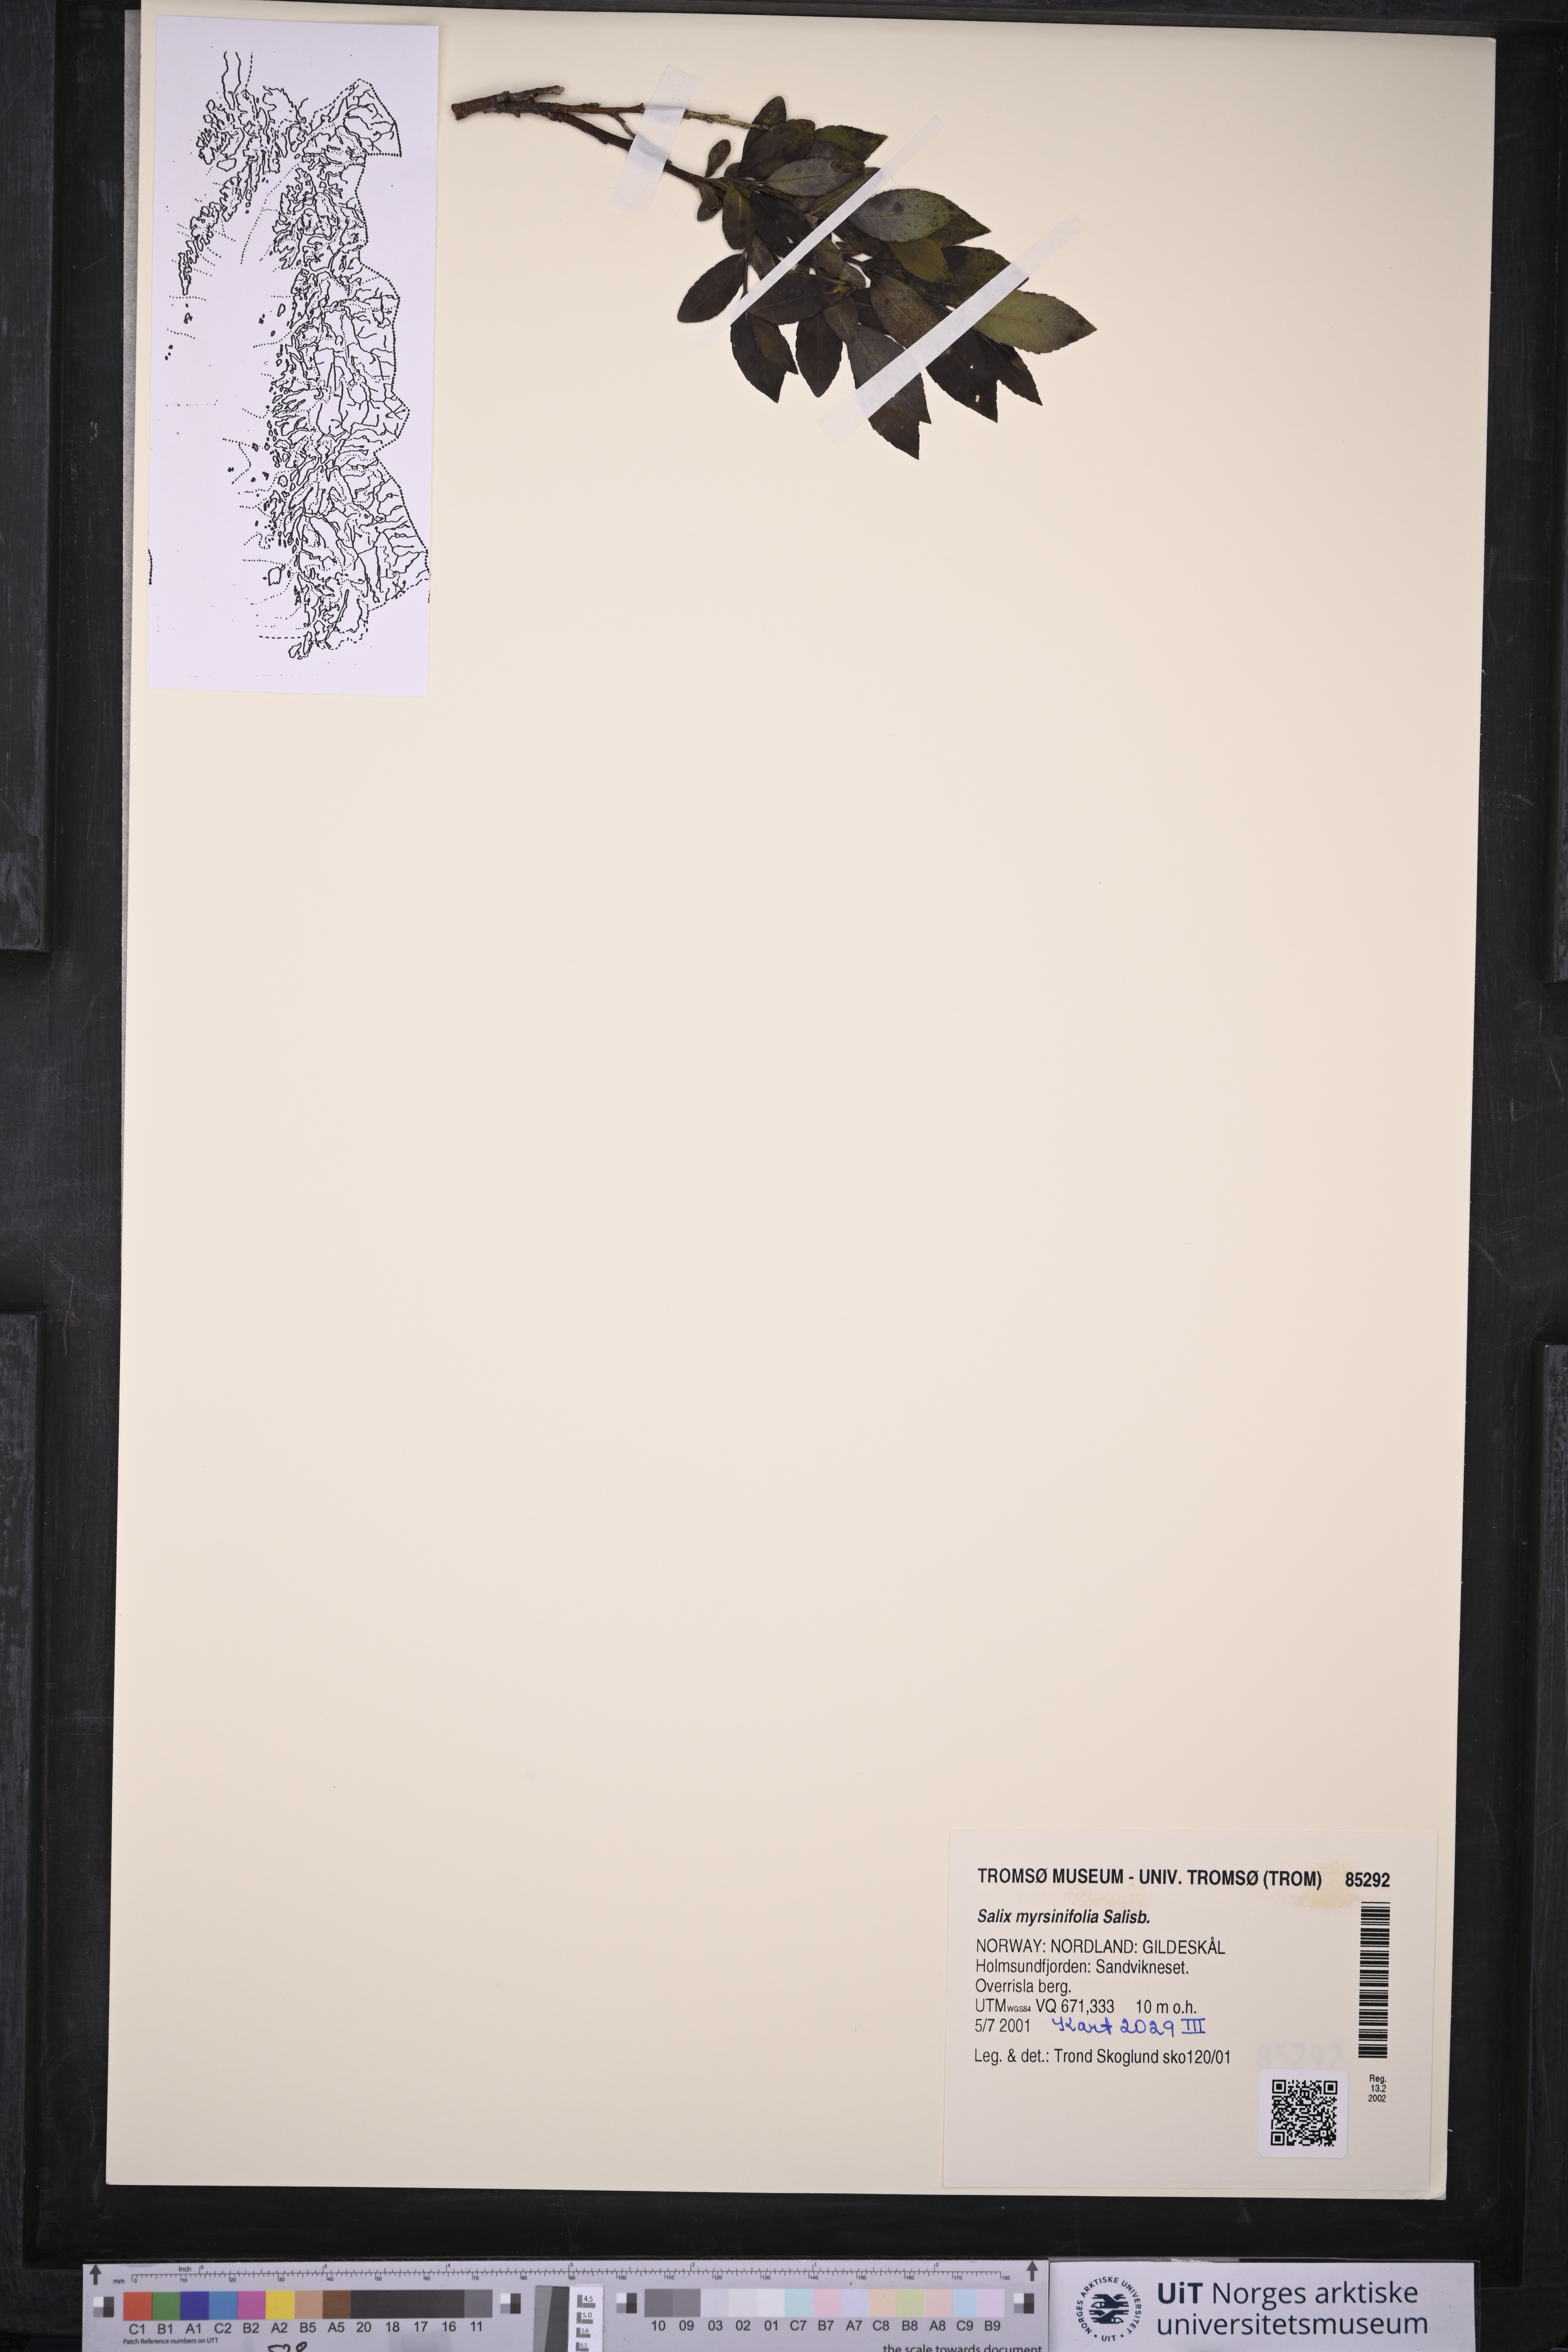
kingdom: Plantae
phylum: Tracheophyta
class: Magnoliopsida
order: Malpighiales
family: Salicaceae
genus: Salix
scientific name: Salix myrsinifolia
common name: Dark-leaved willow
